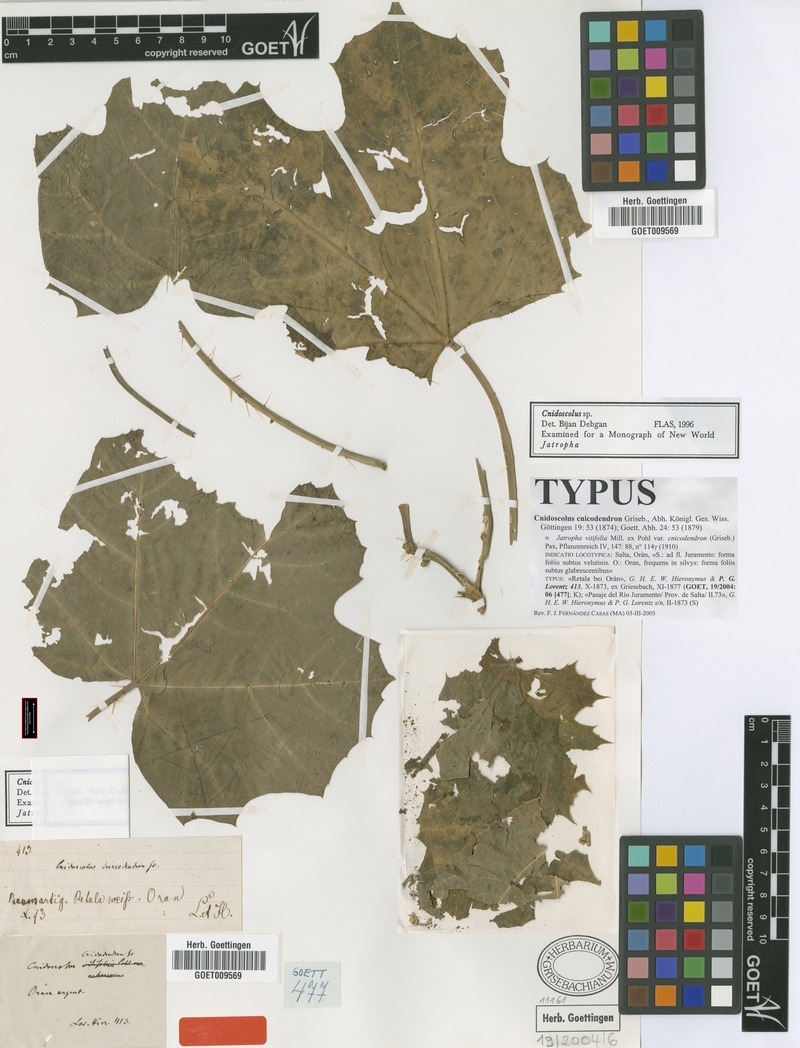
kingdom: Plantae
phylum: Tracheophyta
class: Magnoliopsida
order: Malpighiales
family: Euphorbiaceae
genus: Cnidoscolus
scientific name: Cnidoscolus cnicodendron
